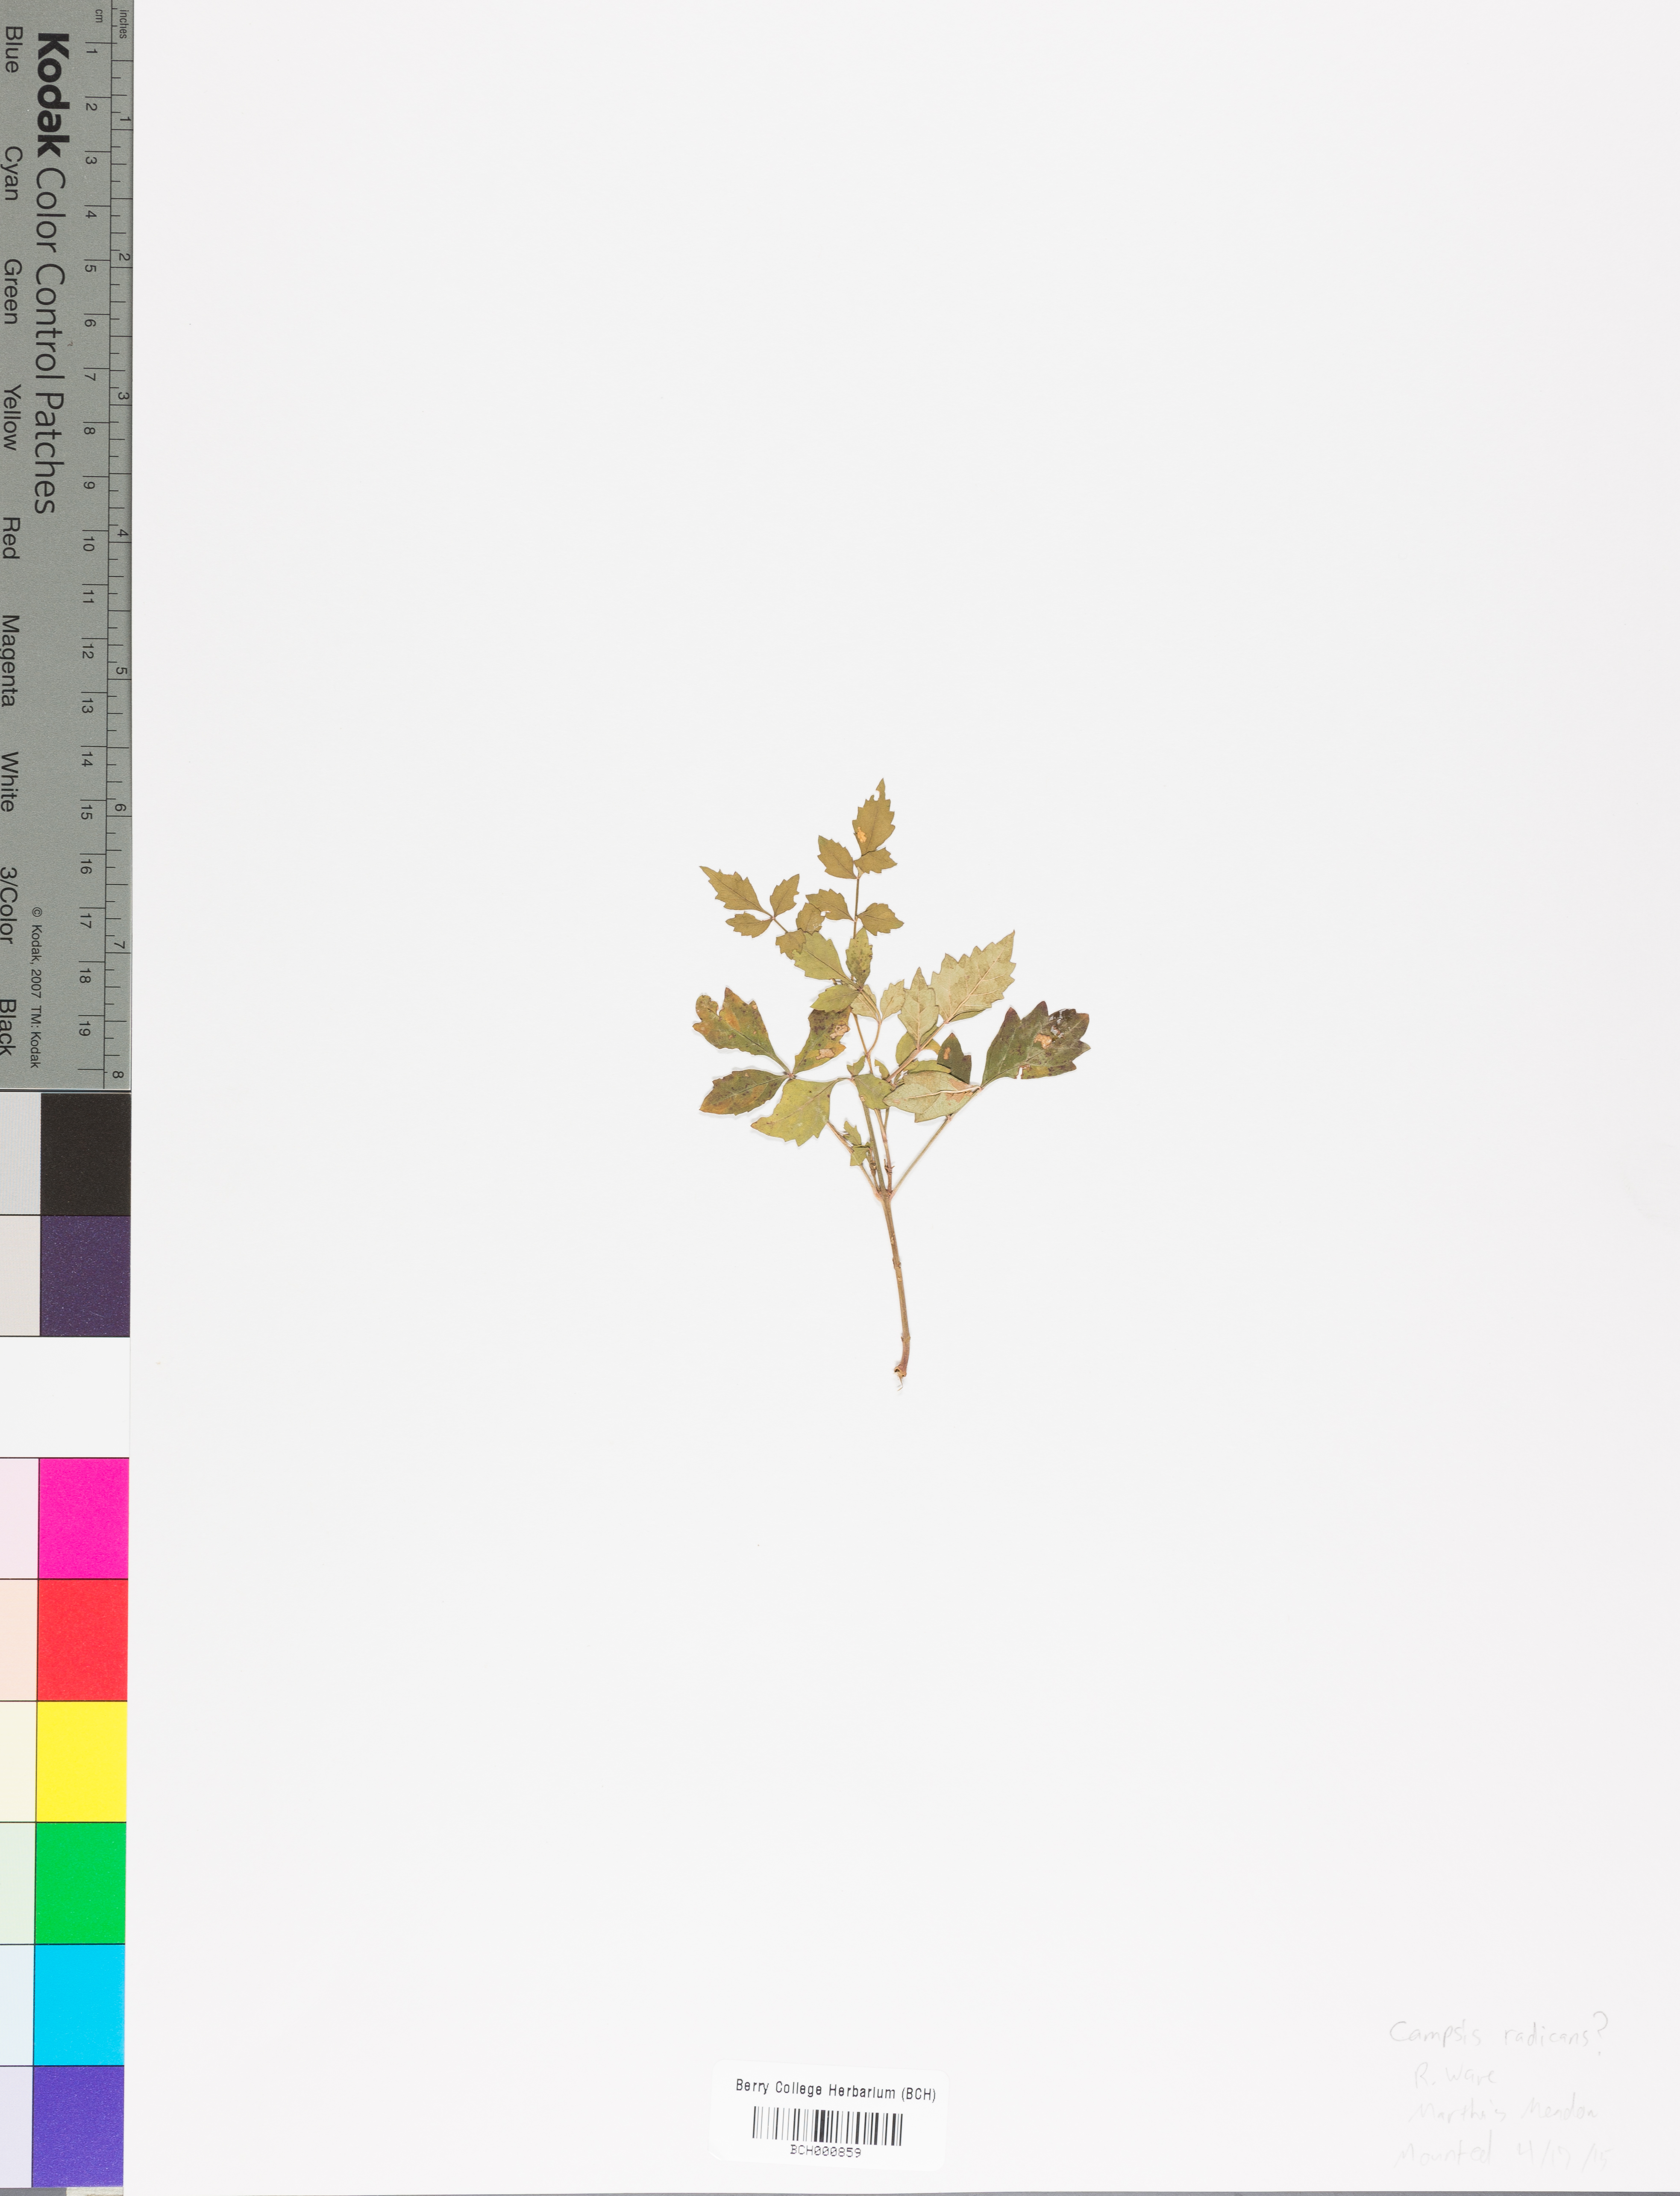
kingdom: Plantae
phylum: Tracheophyta
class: Magnoliopsida
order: Lamiales
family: Acanthaceae
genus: Adhatoda
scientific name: Adhatoda
